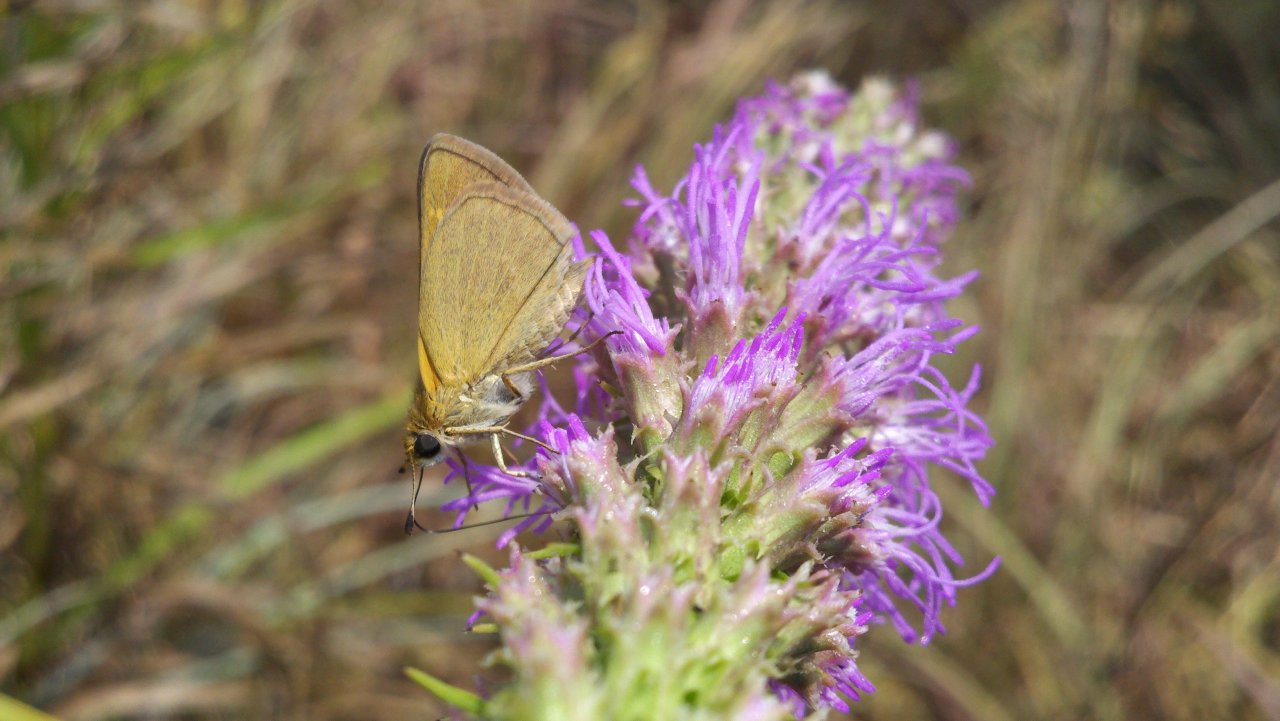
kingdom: Animalia
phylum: Arthropoda
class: Insecta
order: Lepidoptera
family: Hesperiidae
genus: Polites
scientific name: Polites themistocles
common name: Tawny-edged Skipper
